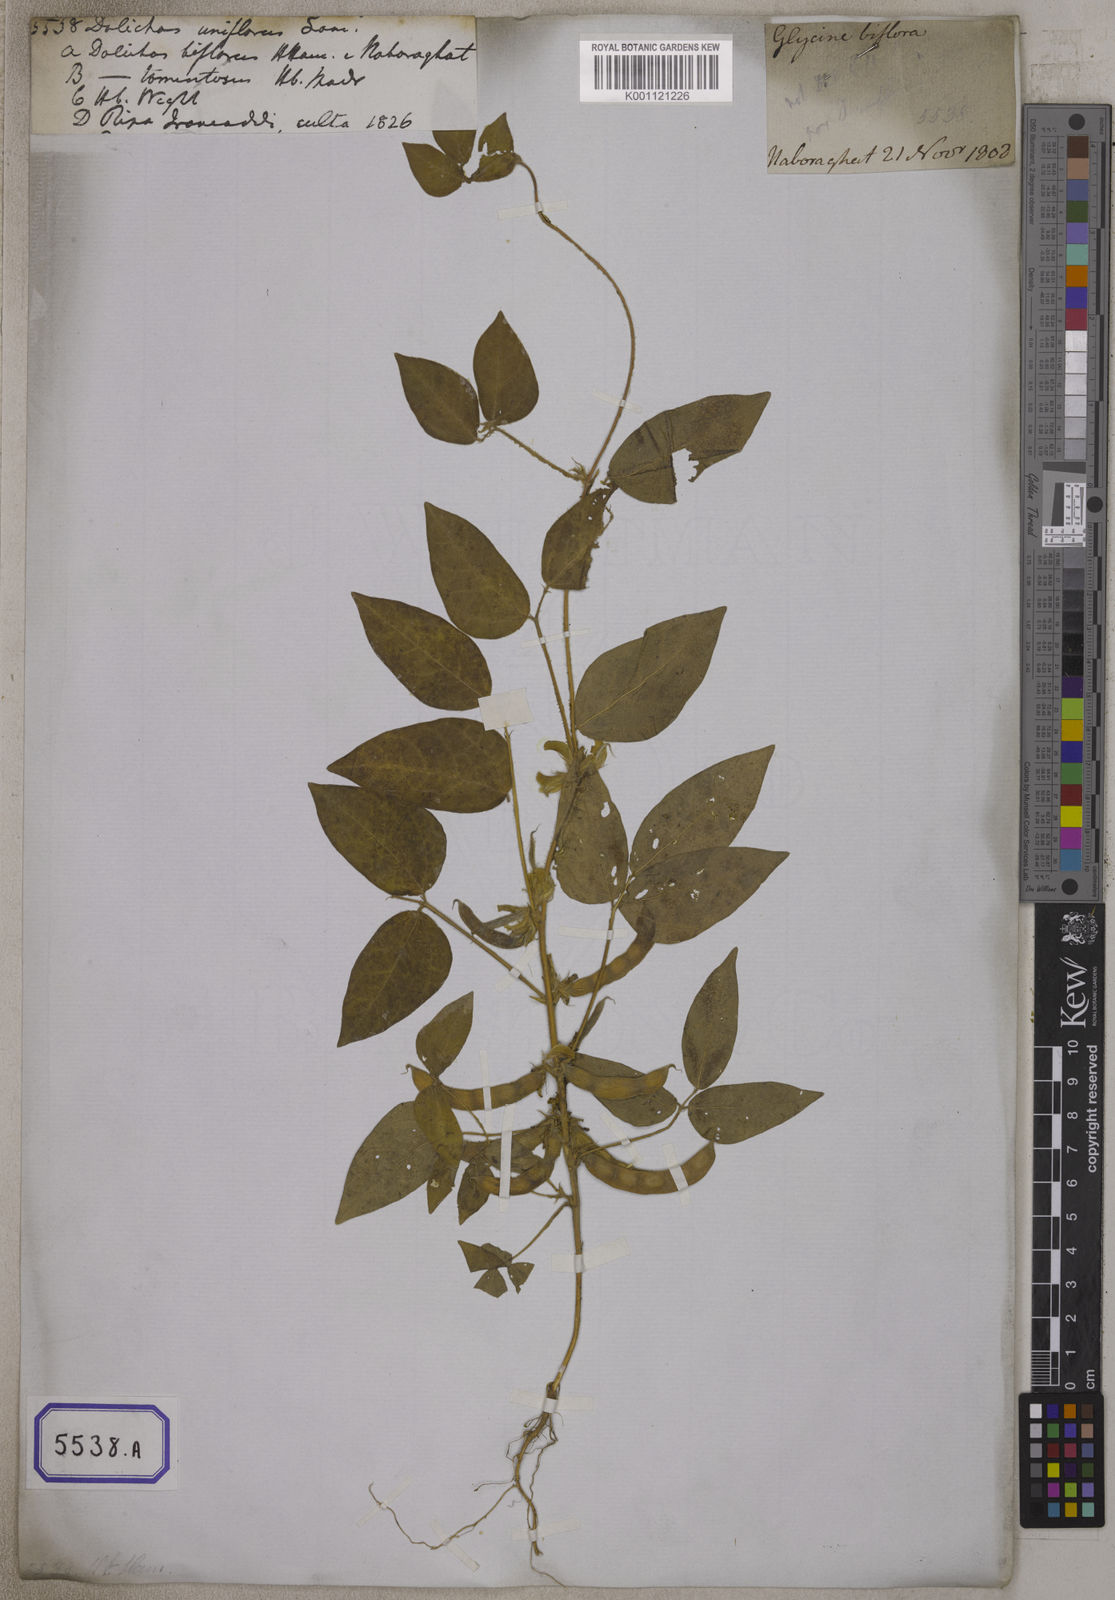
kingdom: Plantae
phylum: Tracheophyta
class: Magnoliopsida
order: Fabales
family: Fabaceae
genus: Macrotyloma
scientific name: Macrotyloma uniflorum
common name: Horse gram
